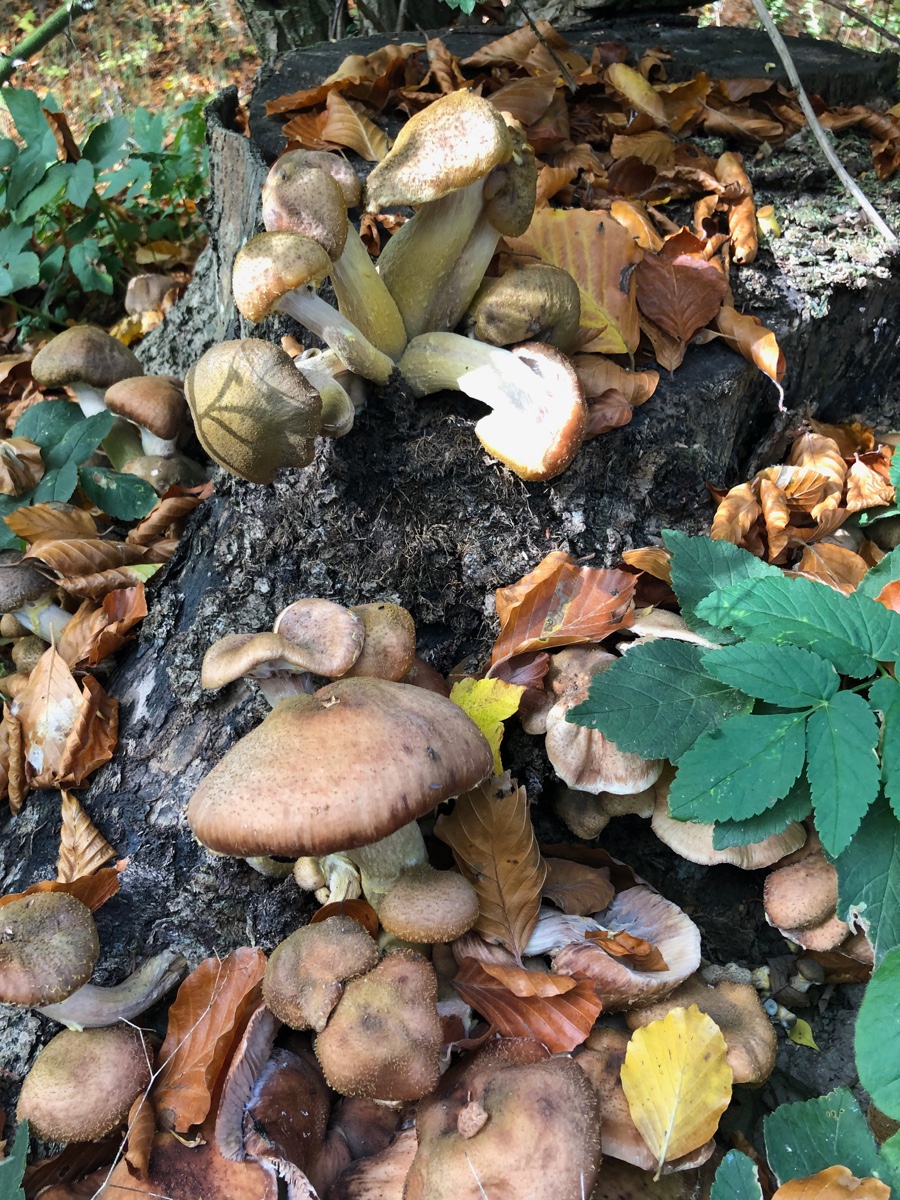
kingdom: Fungi
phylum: Basidiomycota
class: Agaricomycetes
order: Agaricales
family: Physalacriaceae
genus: Armillaria
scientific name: Armillaria lutea
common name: køllestokket honningsvamp
